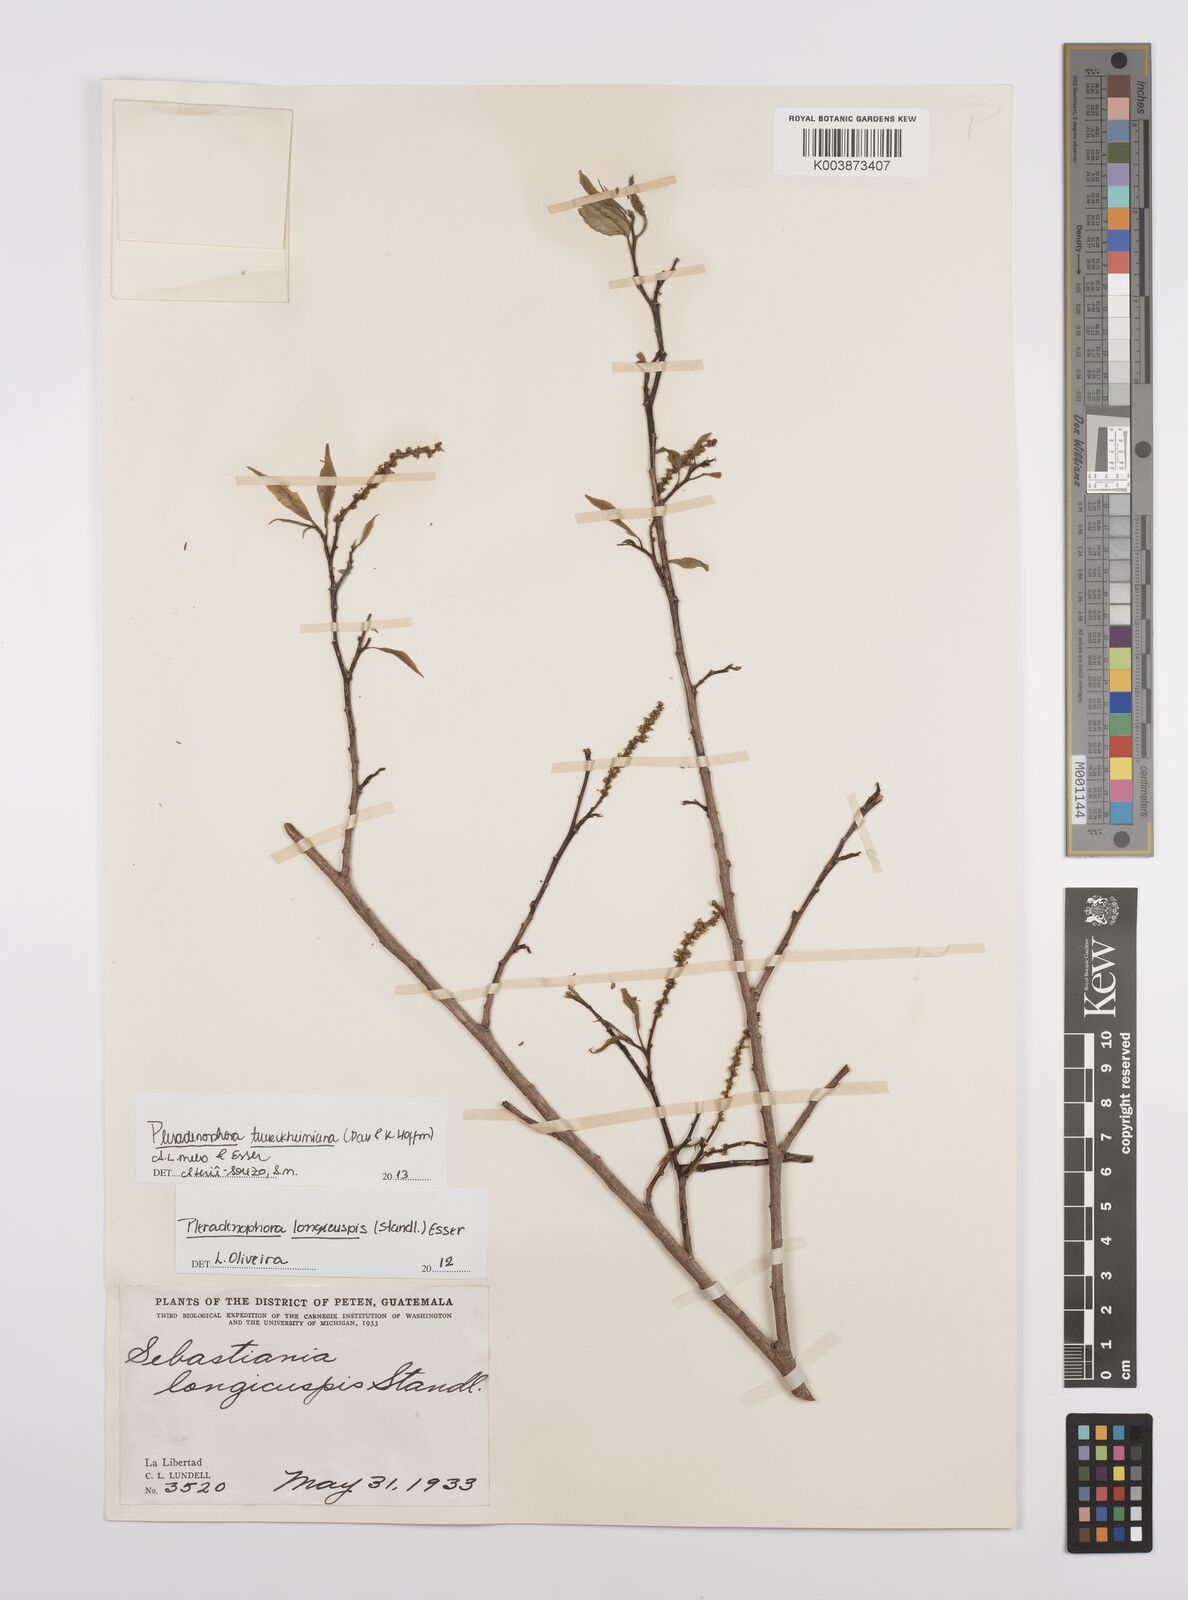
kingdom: Plantae
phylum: Tracheophyta
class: Magnoliopsida
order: Malpighiales
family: Euphorbiaceae
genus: Pleradenophora
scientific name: Pleradenophora tuerckheimiana
